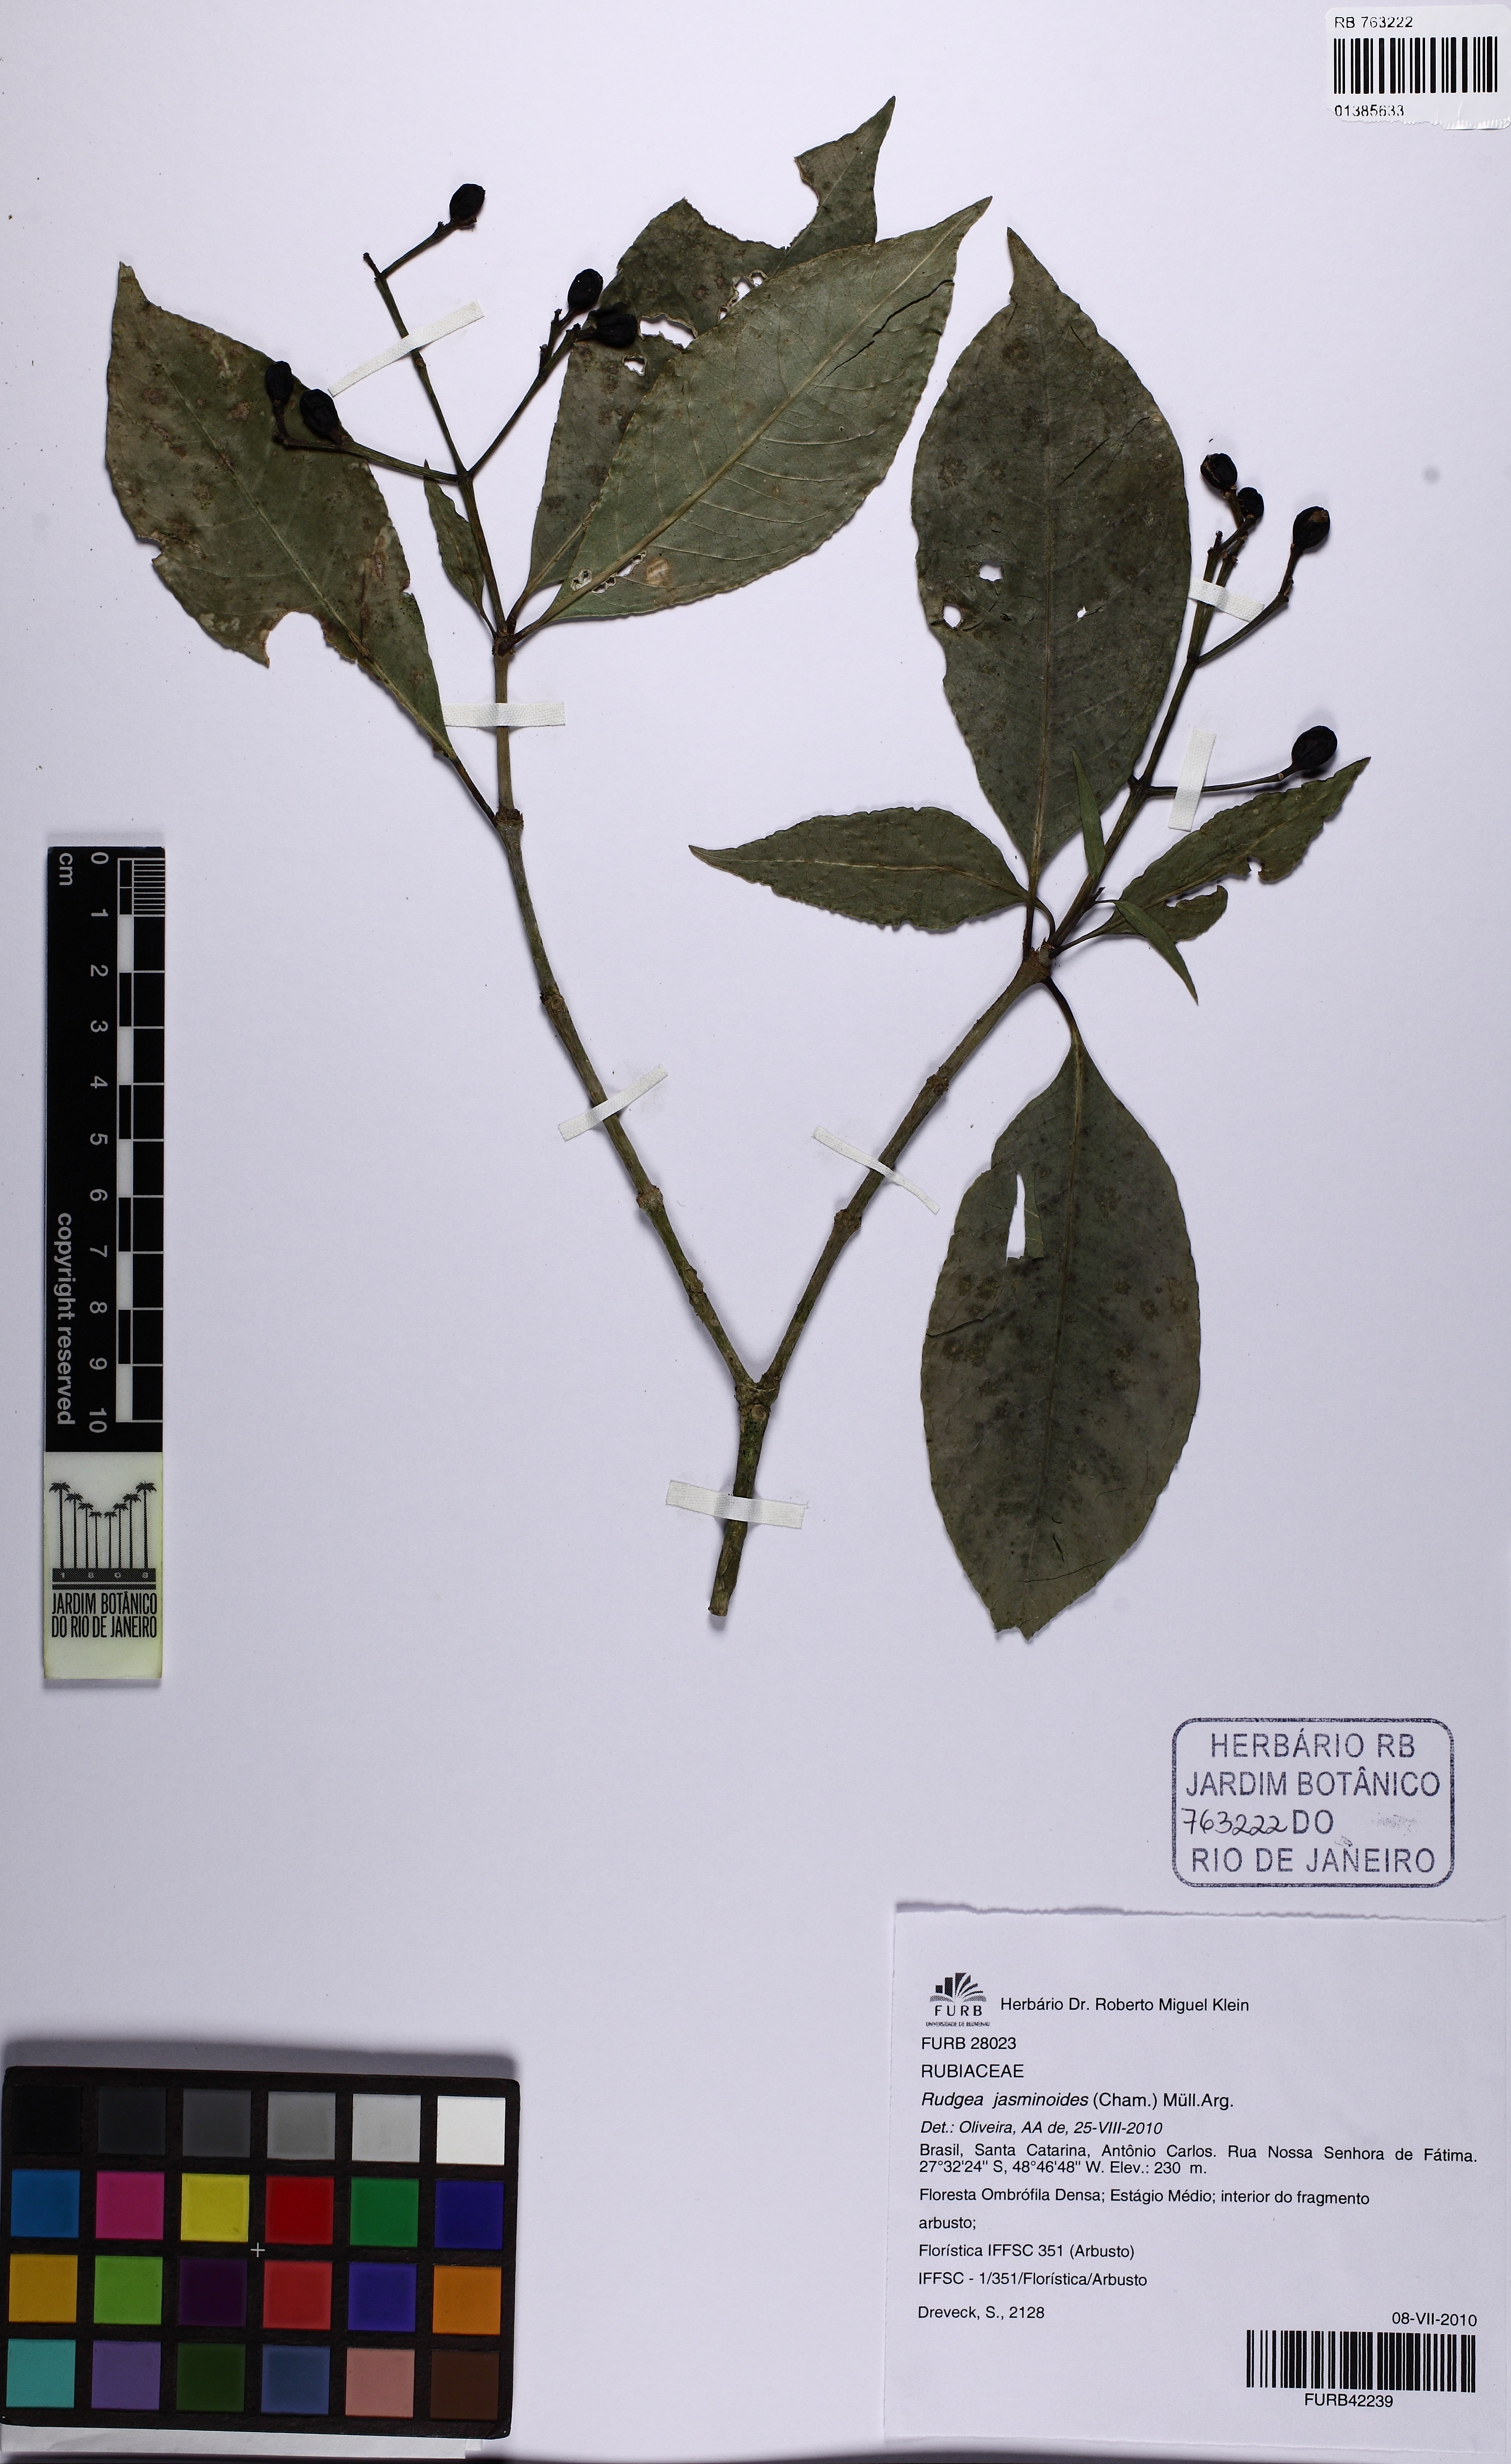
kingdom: Plantae
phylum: Tracheophyta
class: Magnoliopsida
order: Gentianales
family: Rubiaceae
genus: Rudgea
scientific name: Rudgea jasminoides
